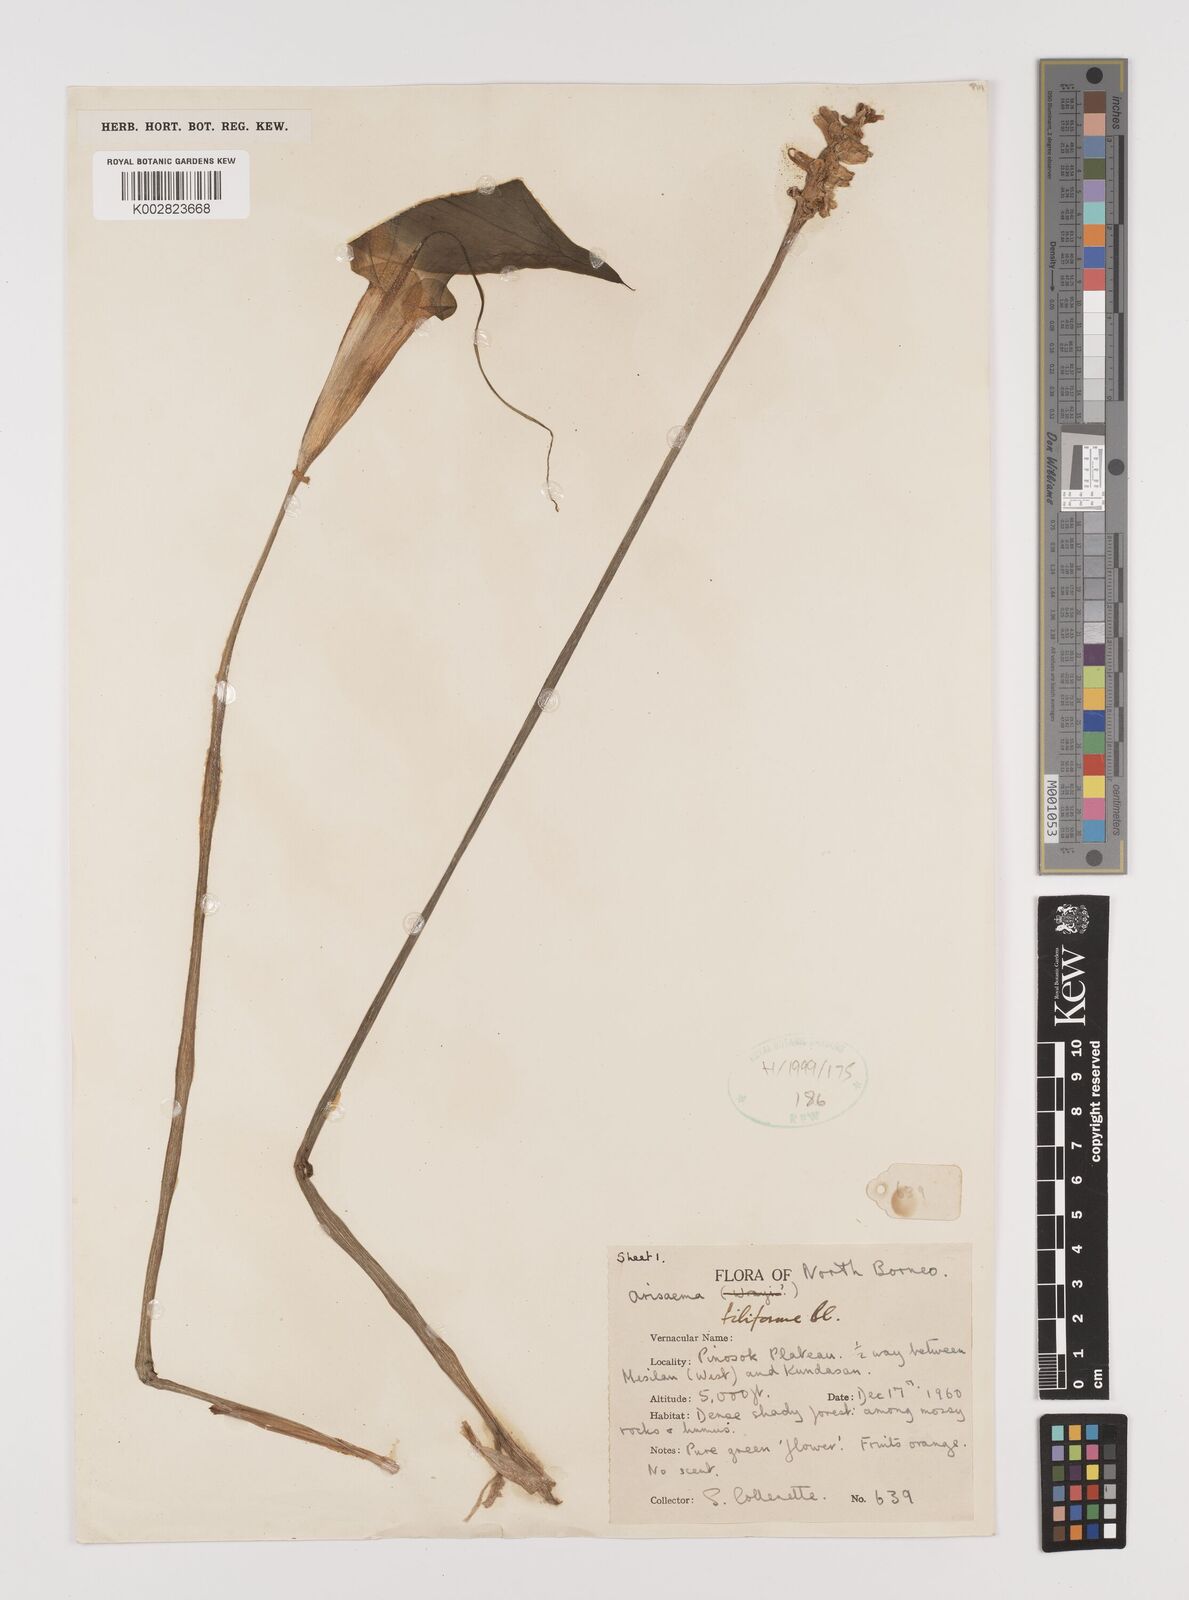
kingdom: Plantae
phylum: Tracheophyta
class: Liliopsida
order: Alismatales
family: Araceae
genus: Arisaema
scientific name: Arisaema filiforme
